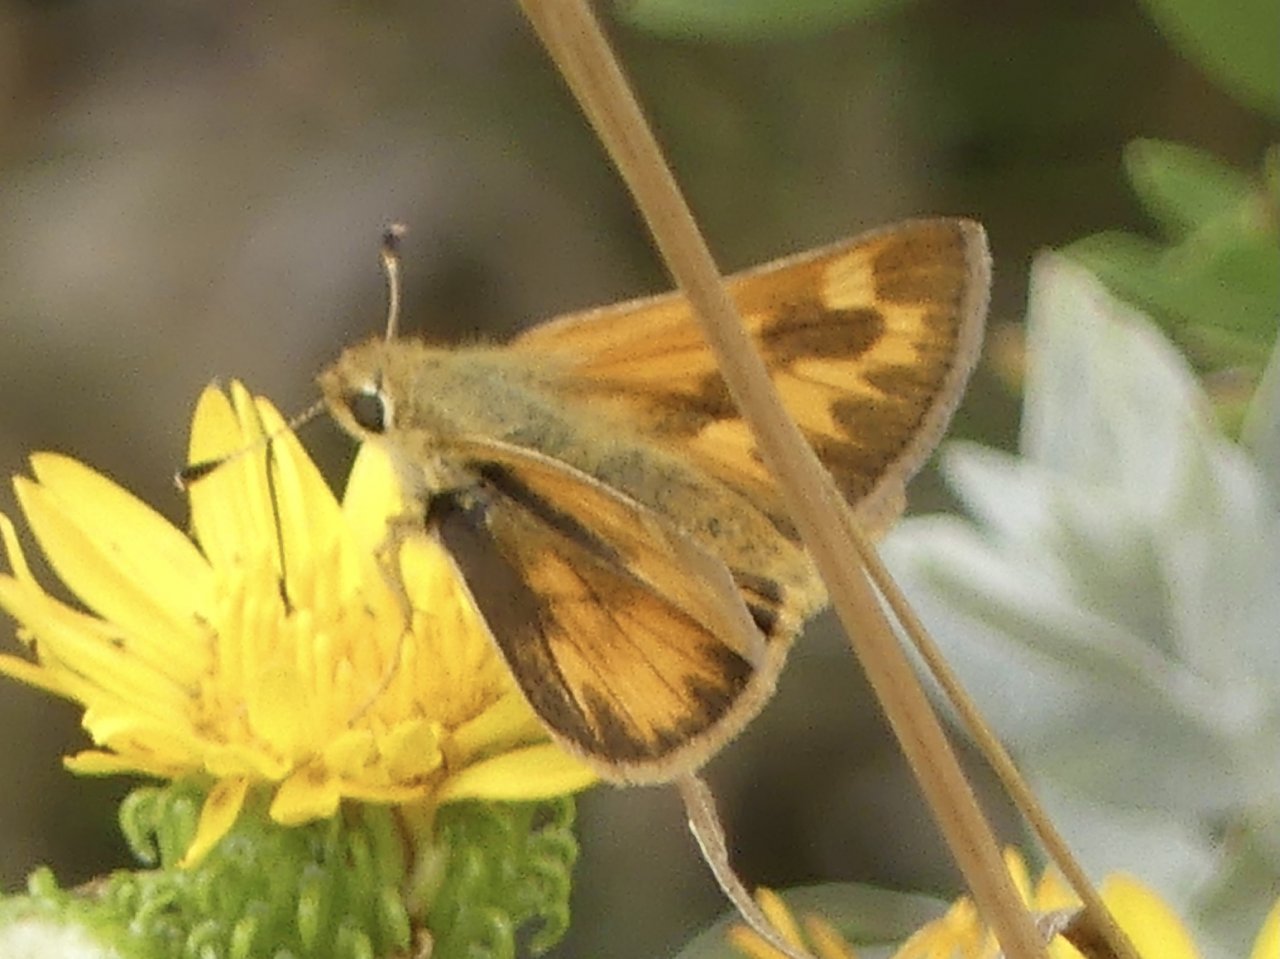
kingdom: Animalia
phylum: Arthropoda
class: Insecta
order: Lepidoptera
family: Hesperiidae
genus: Ochlodes
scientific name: Ochlodes sylvanoides
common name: Woodland Skipper
